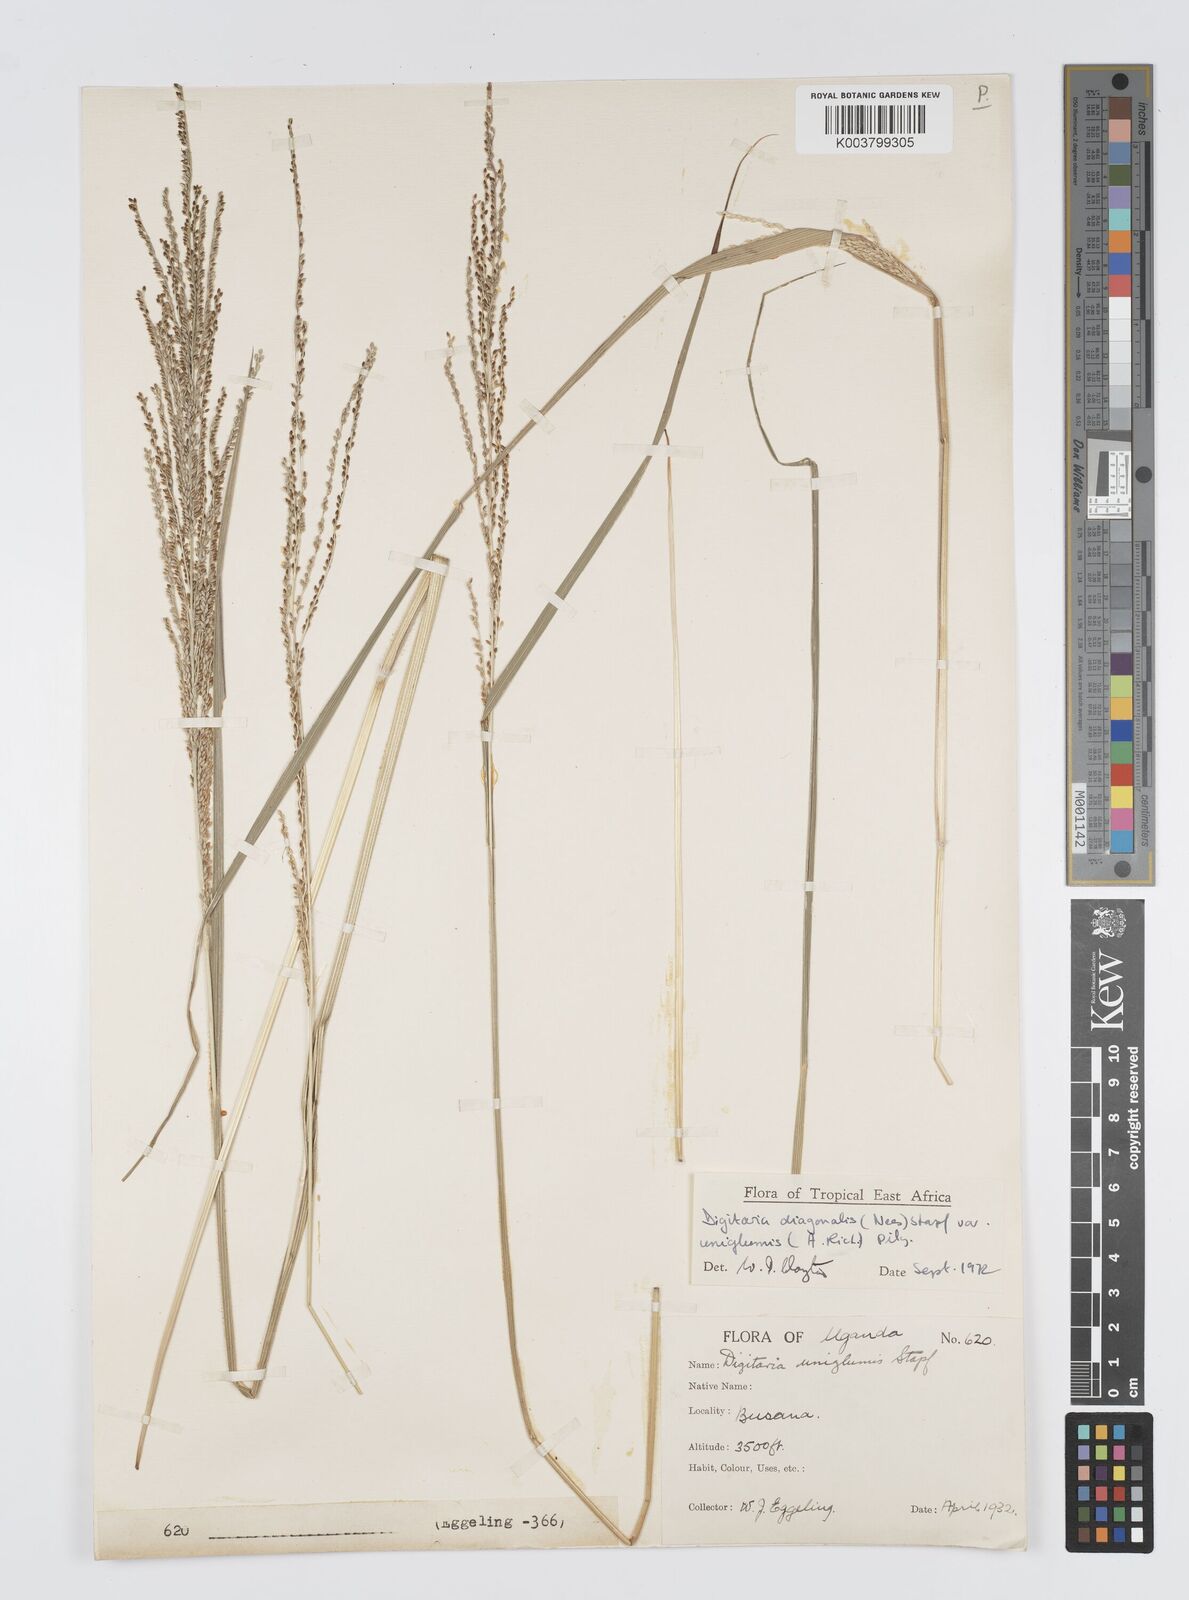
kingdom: Plantae
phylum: Tracheophyta
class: Liliopsida
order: Poales
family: Poaceae
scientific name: Poaceae
